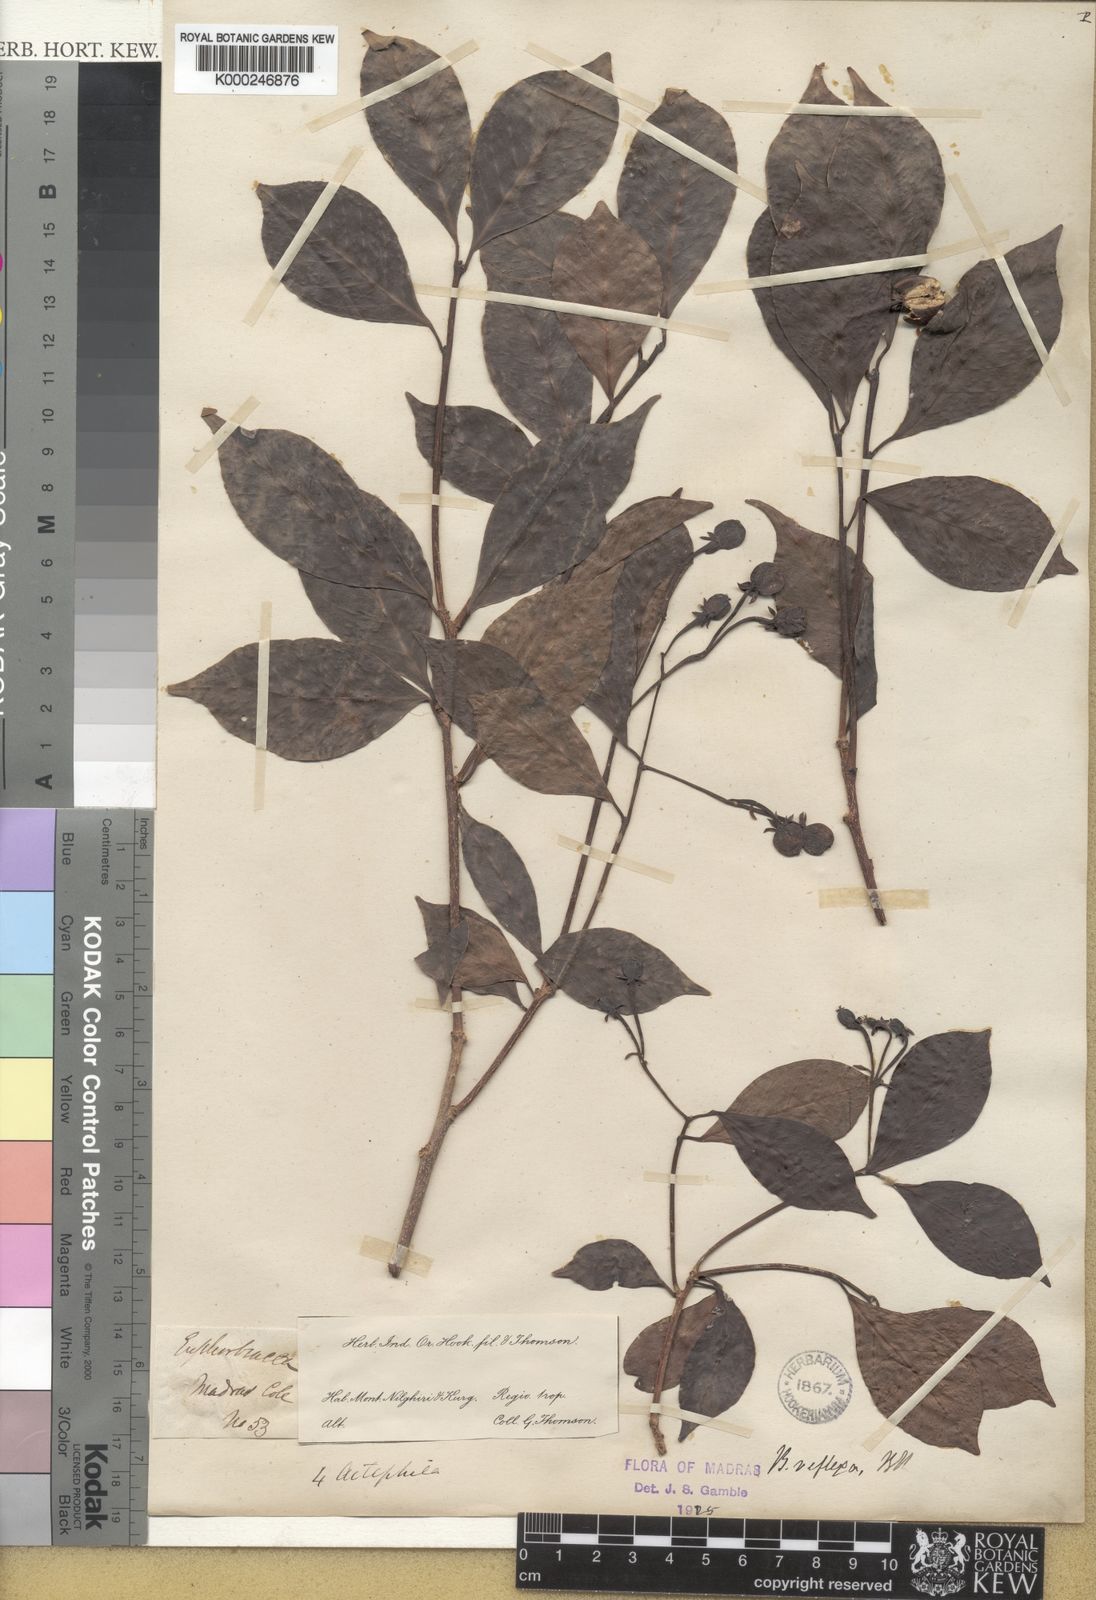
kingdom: Plantae
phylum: Tracheophyta
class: Magnoliopsida
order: Malpighiales
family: Euphorbiaceae
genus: Blachia
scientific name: Blachia umbellata
